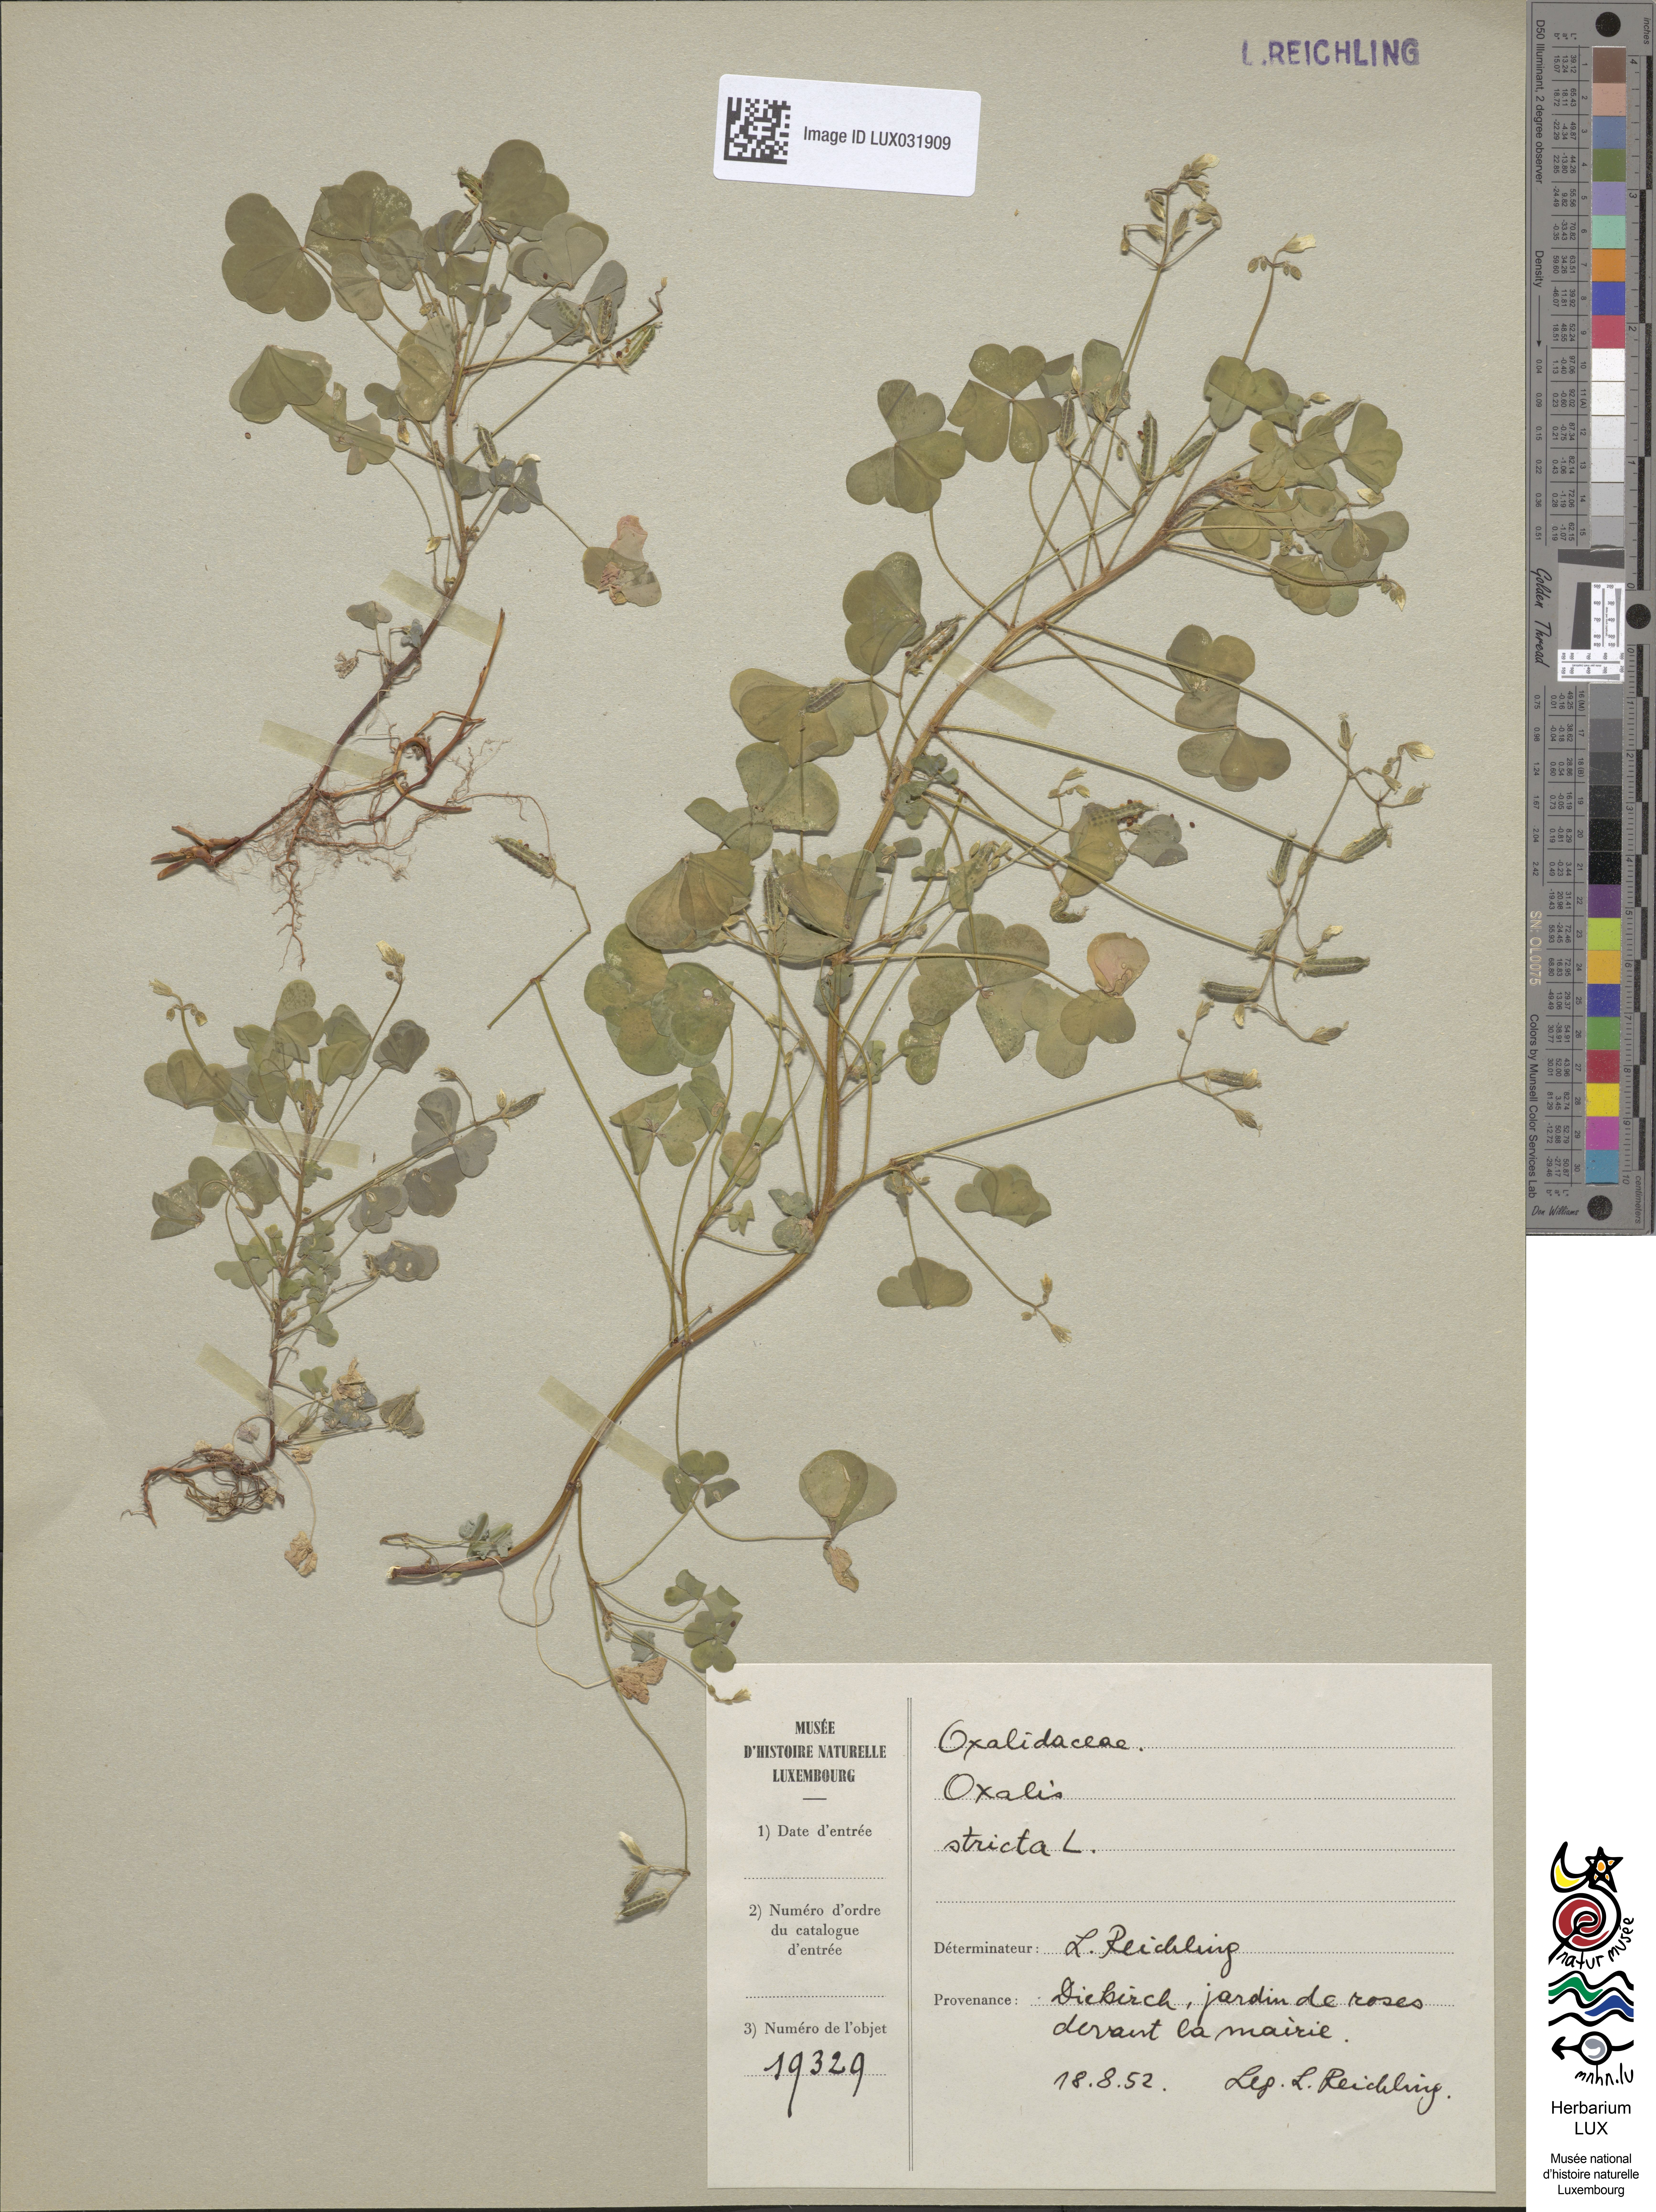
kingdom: Plantae
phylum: Tracheophyta
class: Magnoliopsida
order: Oxalidales
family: Oxalidaceae
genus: Oxalis
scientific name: Oxalis stricta
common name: Upright yellow-sorrel
